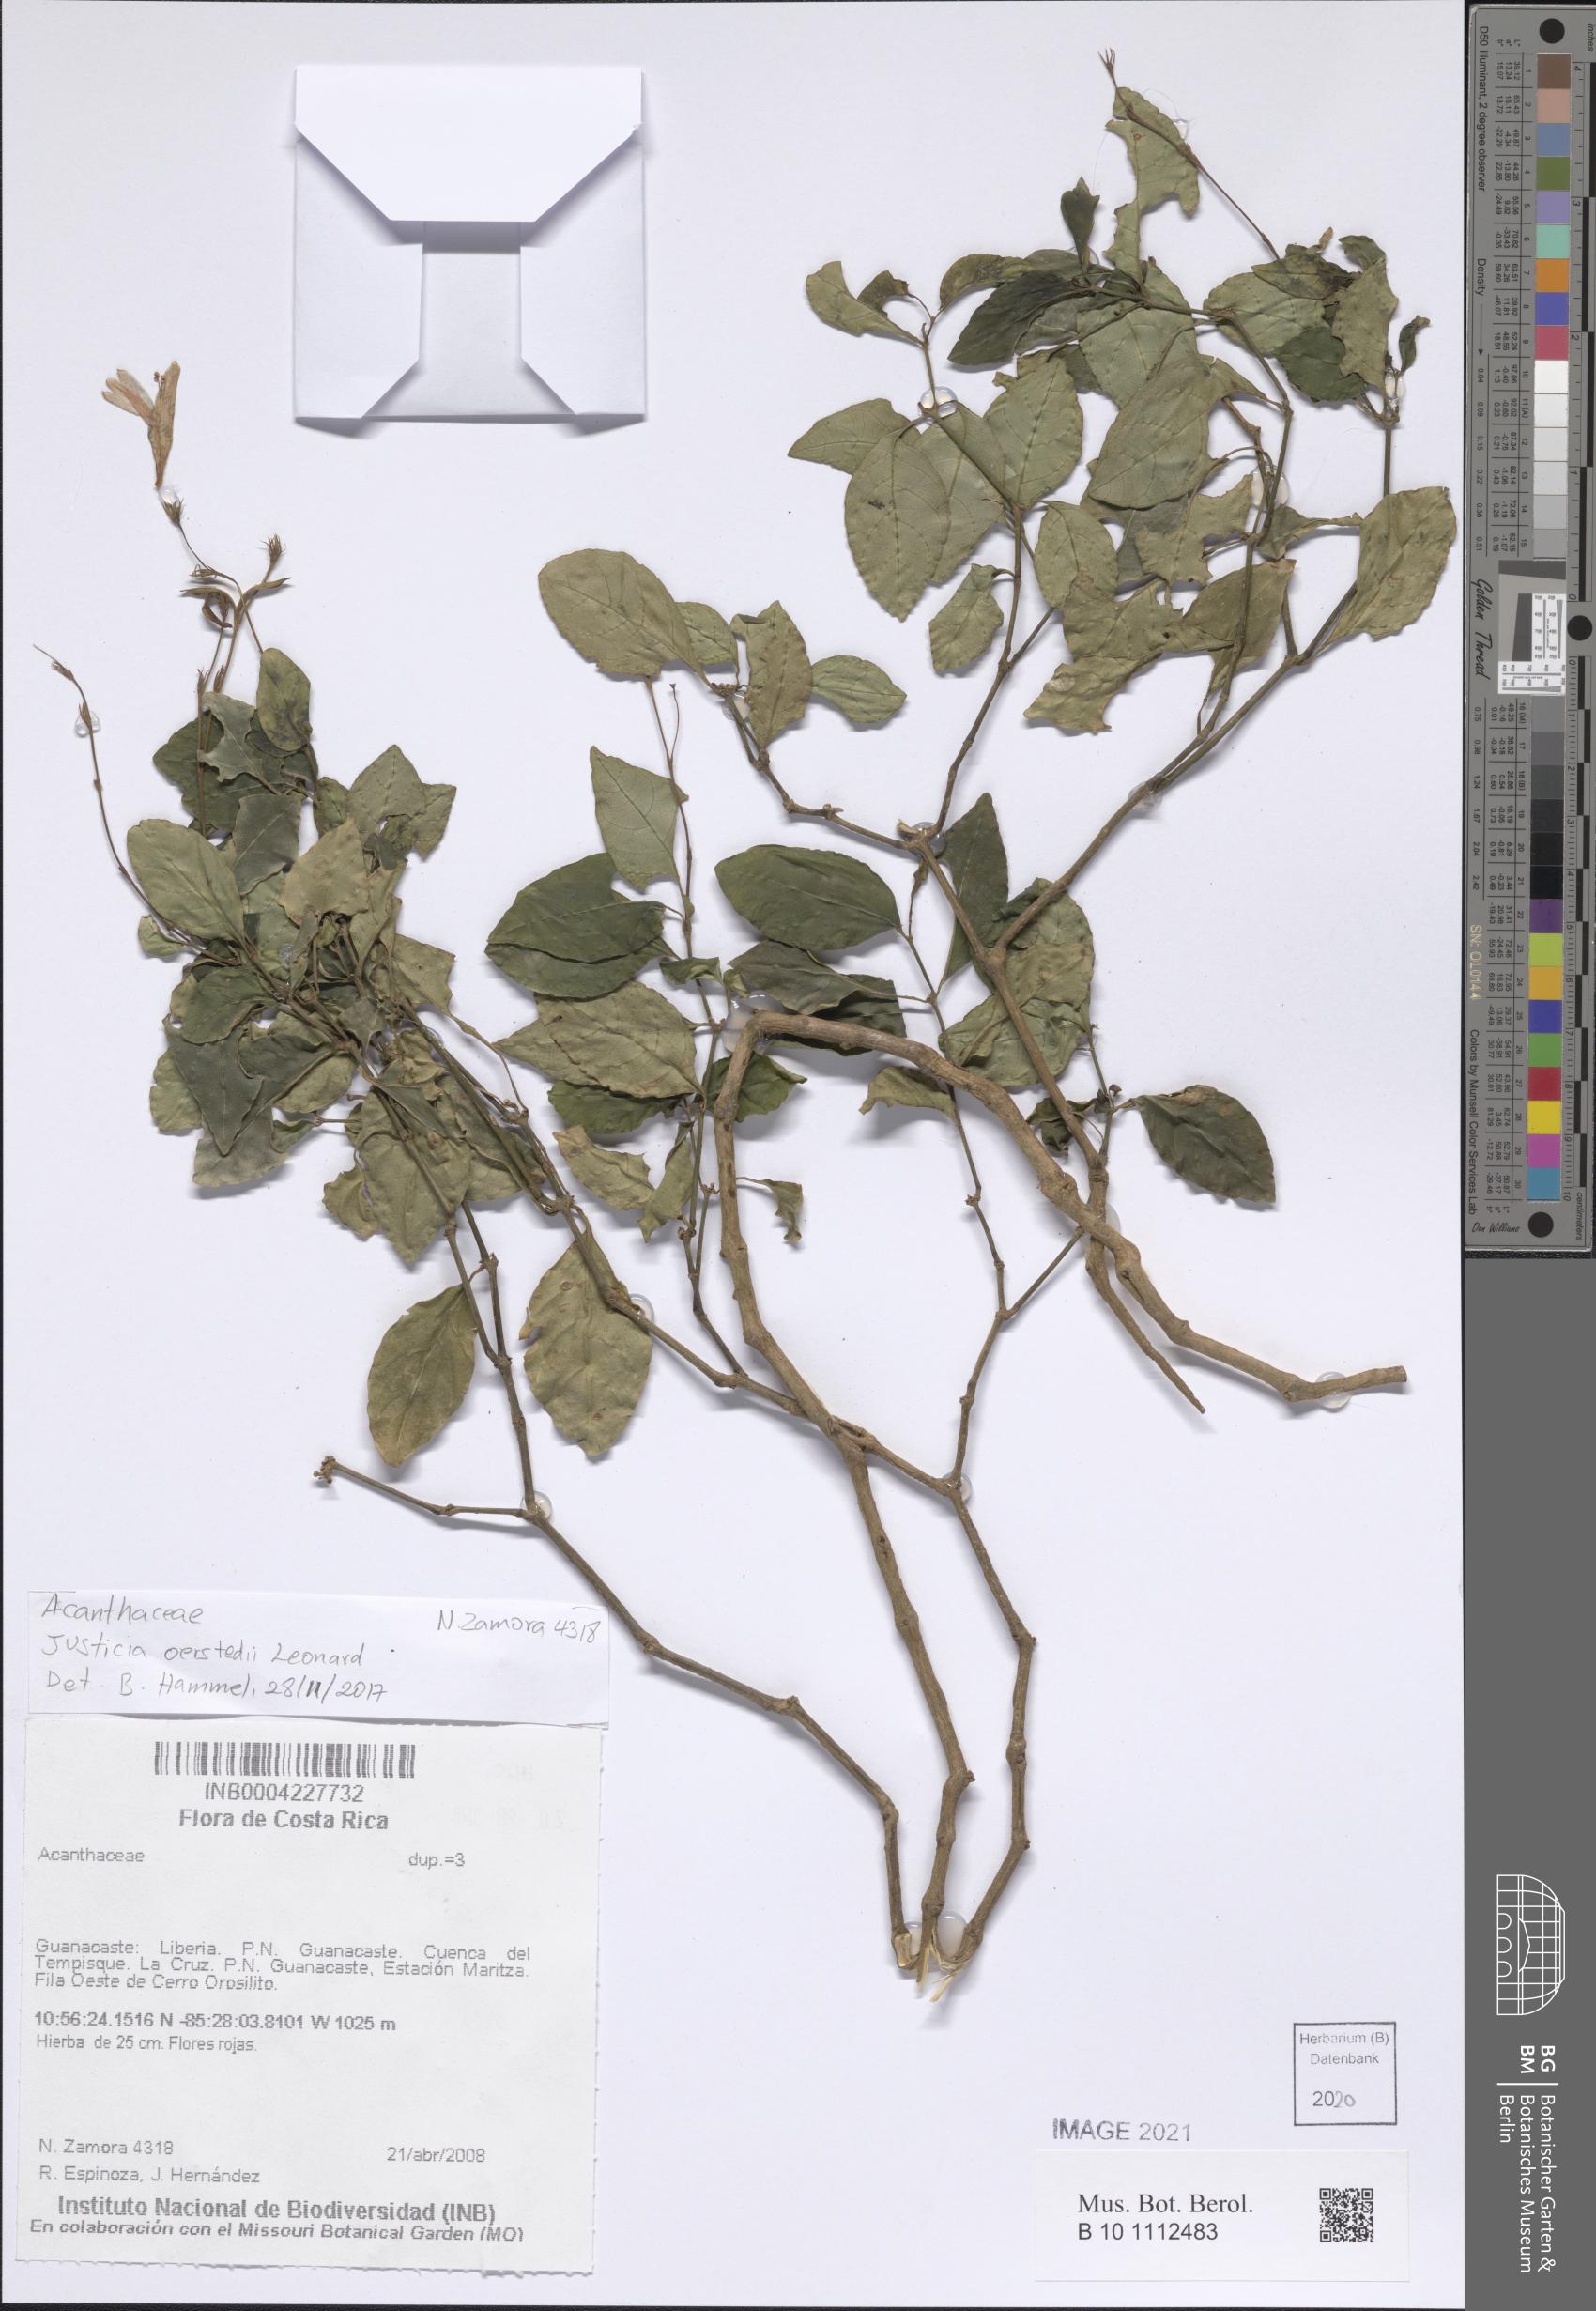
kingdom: Plantae
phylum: Tracheophyta
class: Magnoliopsida
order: Lamiales
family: Acanthaceae
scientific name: Acanthaceae
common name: Acanthaceae
